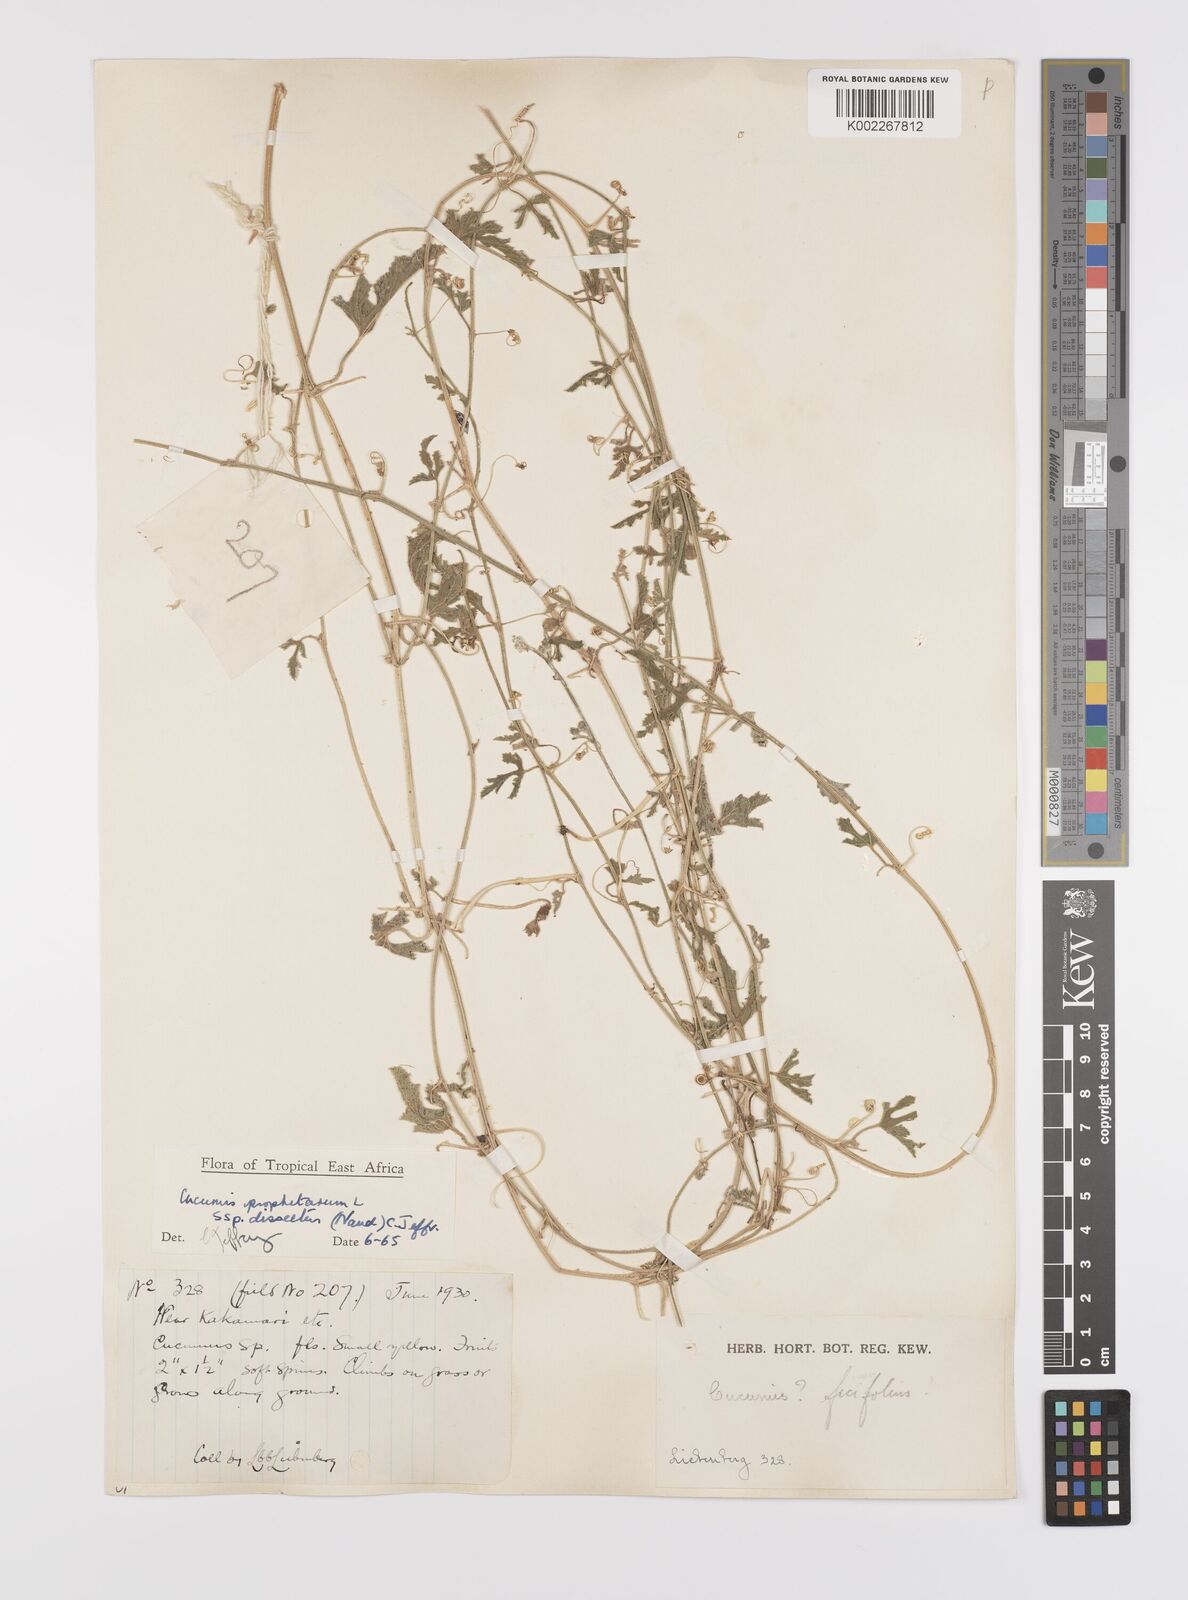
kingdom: Plantae
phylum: Tracheophyta
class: Magnoliopsida
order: Cucurbitales
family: Cucurbitaceae
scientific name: Cucurbitaceae
